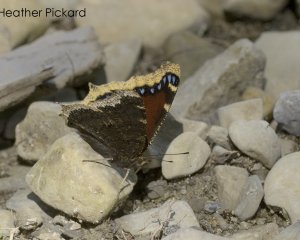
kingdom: Animalia
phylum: Arthropoda
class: Insecta
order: Lepidoptera
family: Nymphalidae
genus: Nymphalis
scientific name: Nymphalis antiopa
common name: Mourning Cloak
